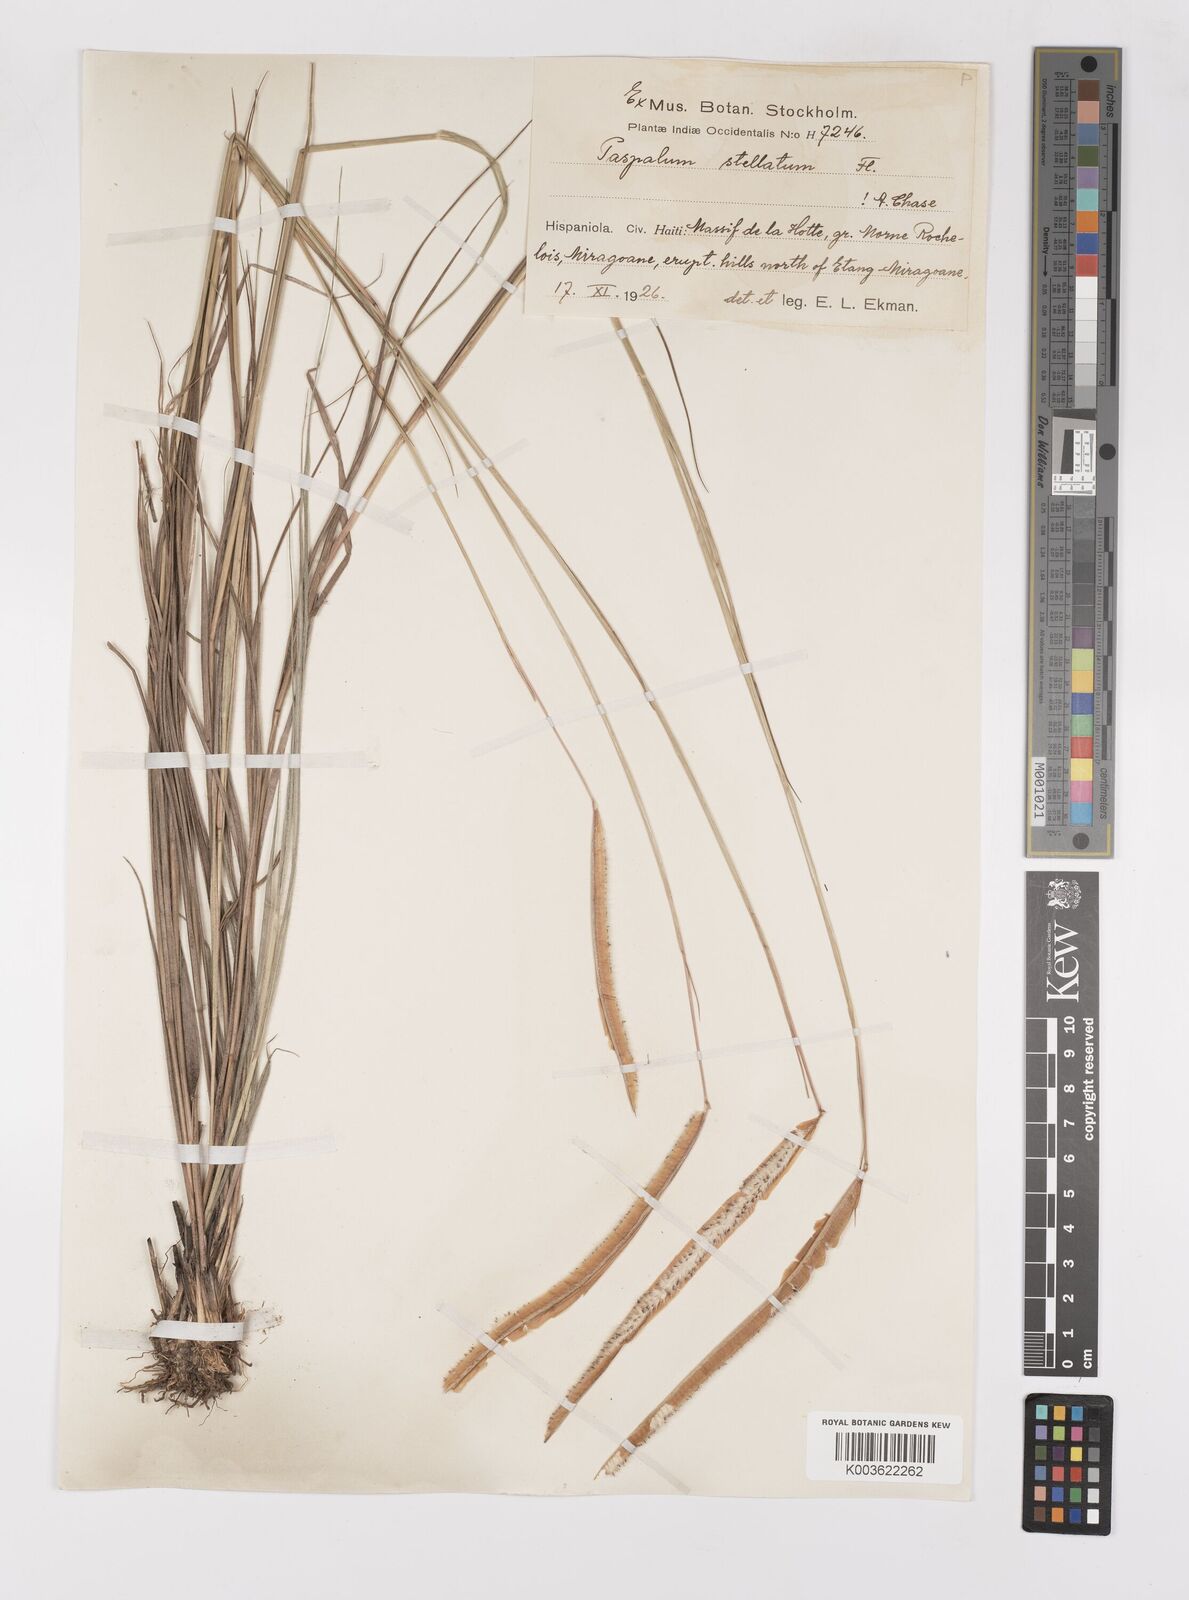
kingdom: Plantae
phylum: Tracheophyta
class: Liliopsida
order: Poales
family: Poaceae
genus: Paspalum
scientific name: Paspalum stellatum
